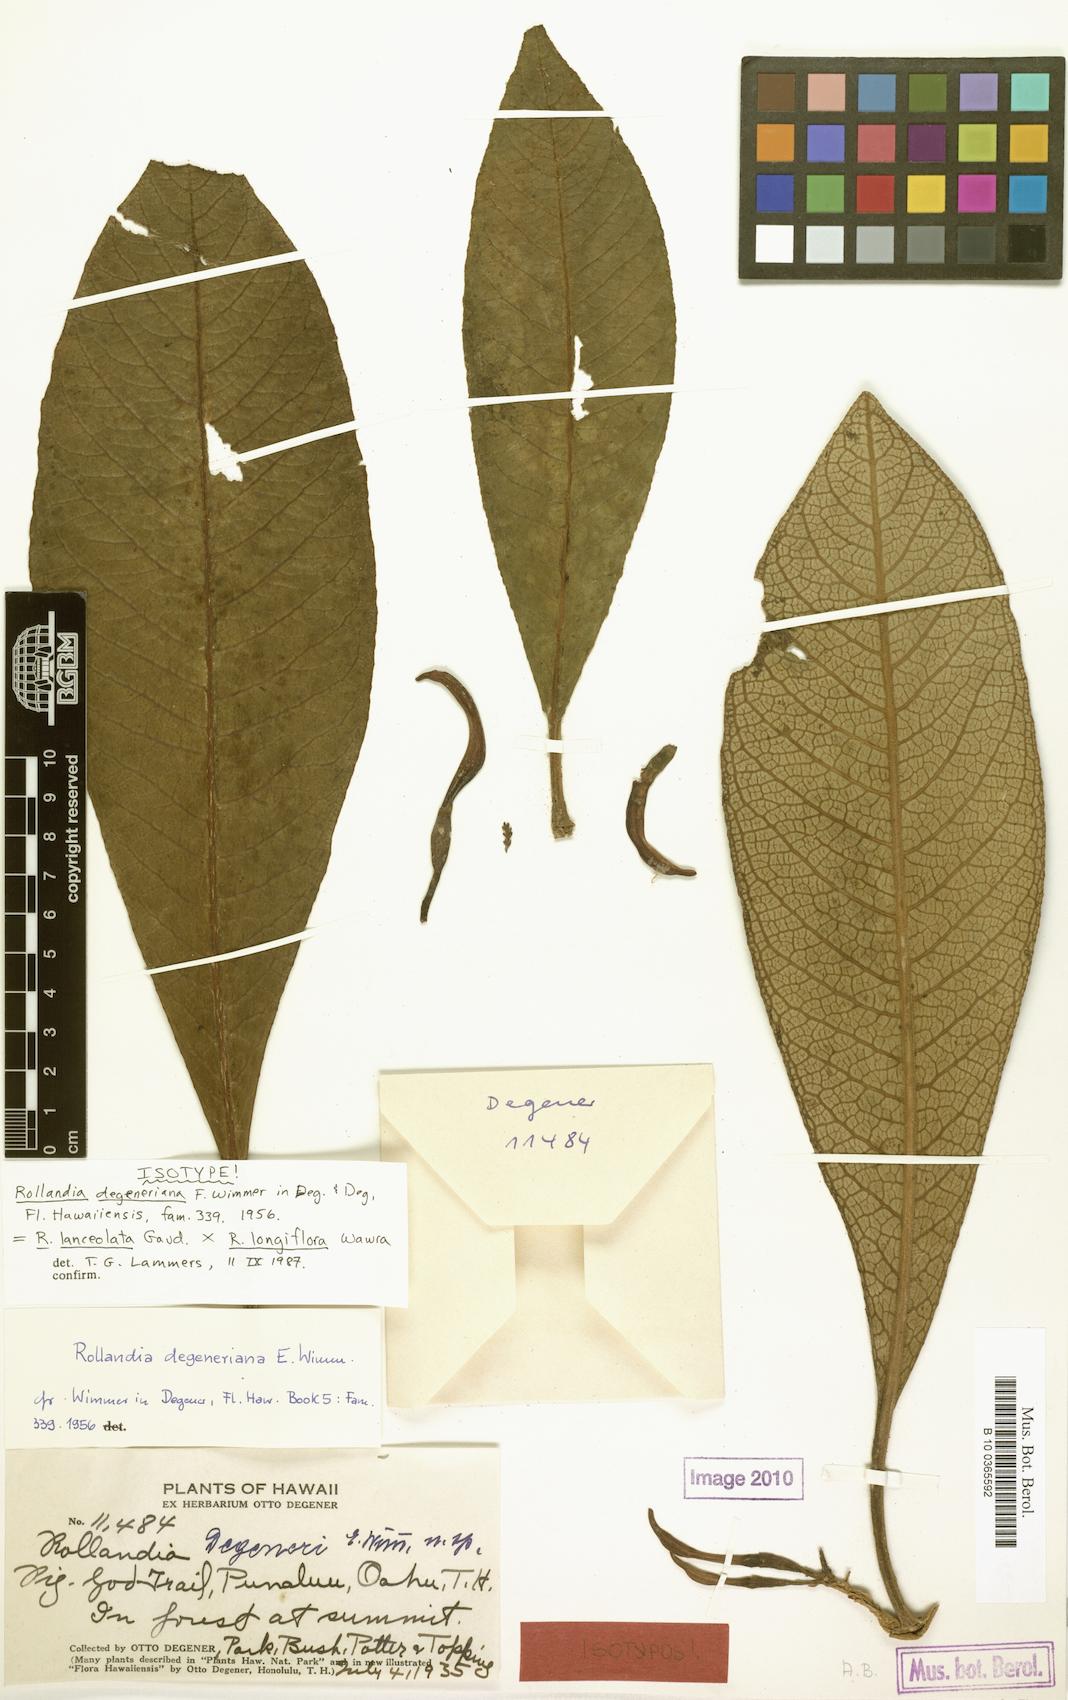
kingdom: Plantae
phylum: Tracheophyta
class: Magnoliopsida
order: Asterales
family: Campanulaceae
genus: Cyanea
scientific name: Cyanea lanceolata
